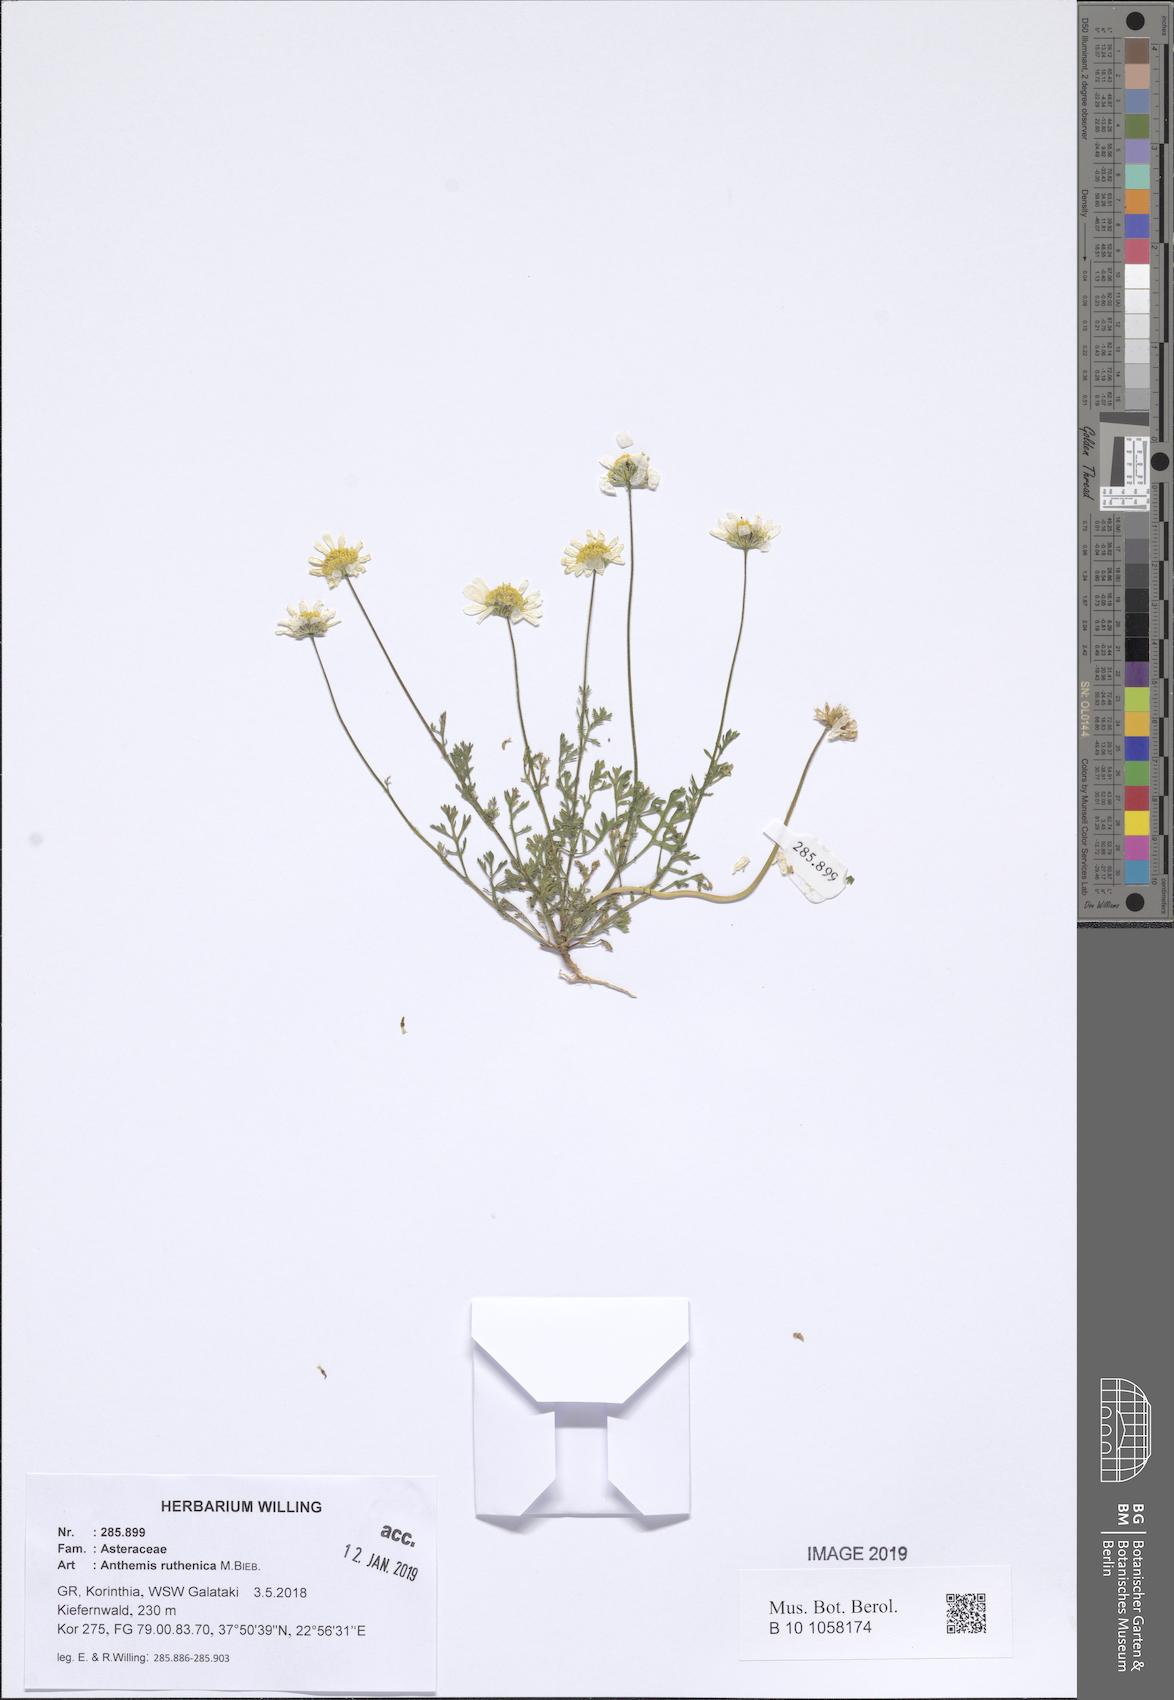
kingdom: Plantae
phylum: Tracheophyta
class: Magnoliopsida
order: Asterales
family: Asteraceae
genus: Anthemis
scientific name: Anthemis ruthenica
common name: Eastern chamomile
